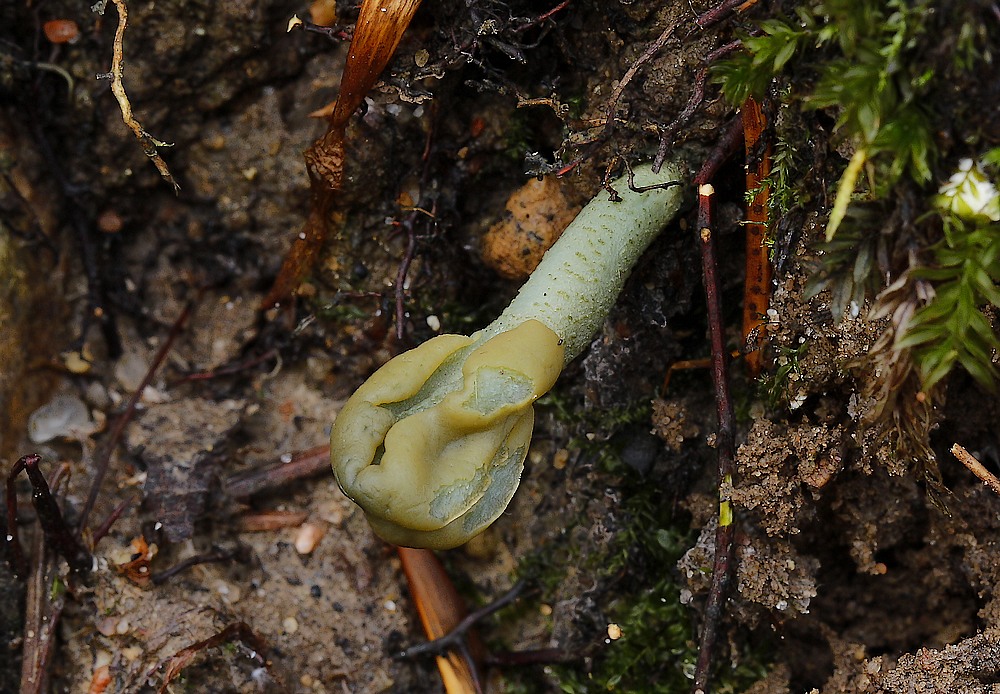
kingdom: Fungi
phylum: Ascomycota
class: Leotiomycetes
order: Leotiales
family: Leotiaceae
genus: Microglossum
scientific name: Microglossum griseoviride
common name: grågrøn farvetunge
